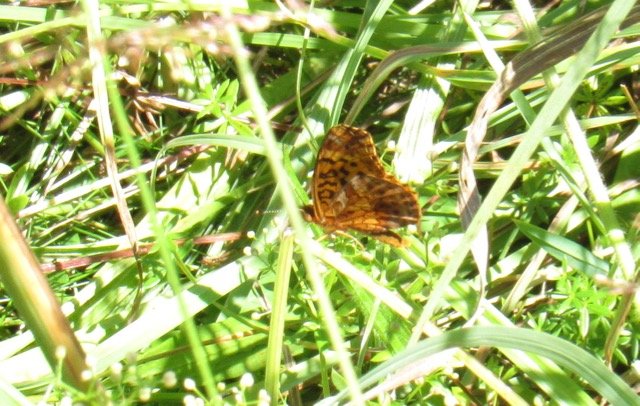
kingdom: Animalia
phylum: Arthropoda
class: Insecta
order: Lepidoptera
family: Nymphalidae
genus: Clossiana
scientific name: Clossiana toddi
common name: Meadow Fritillary
